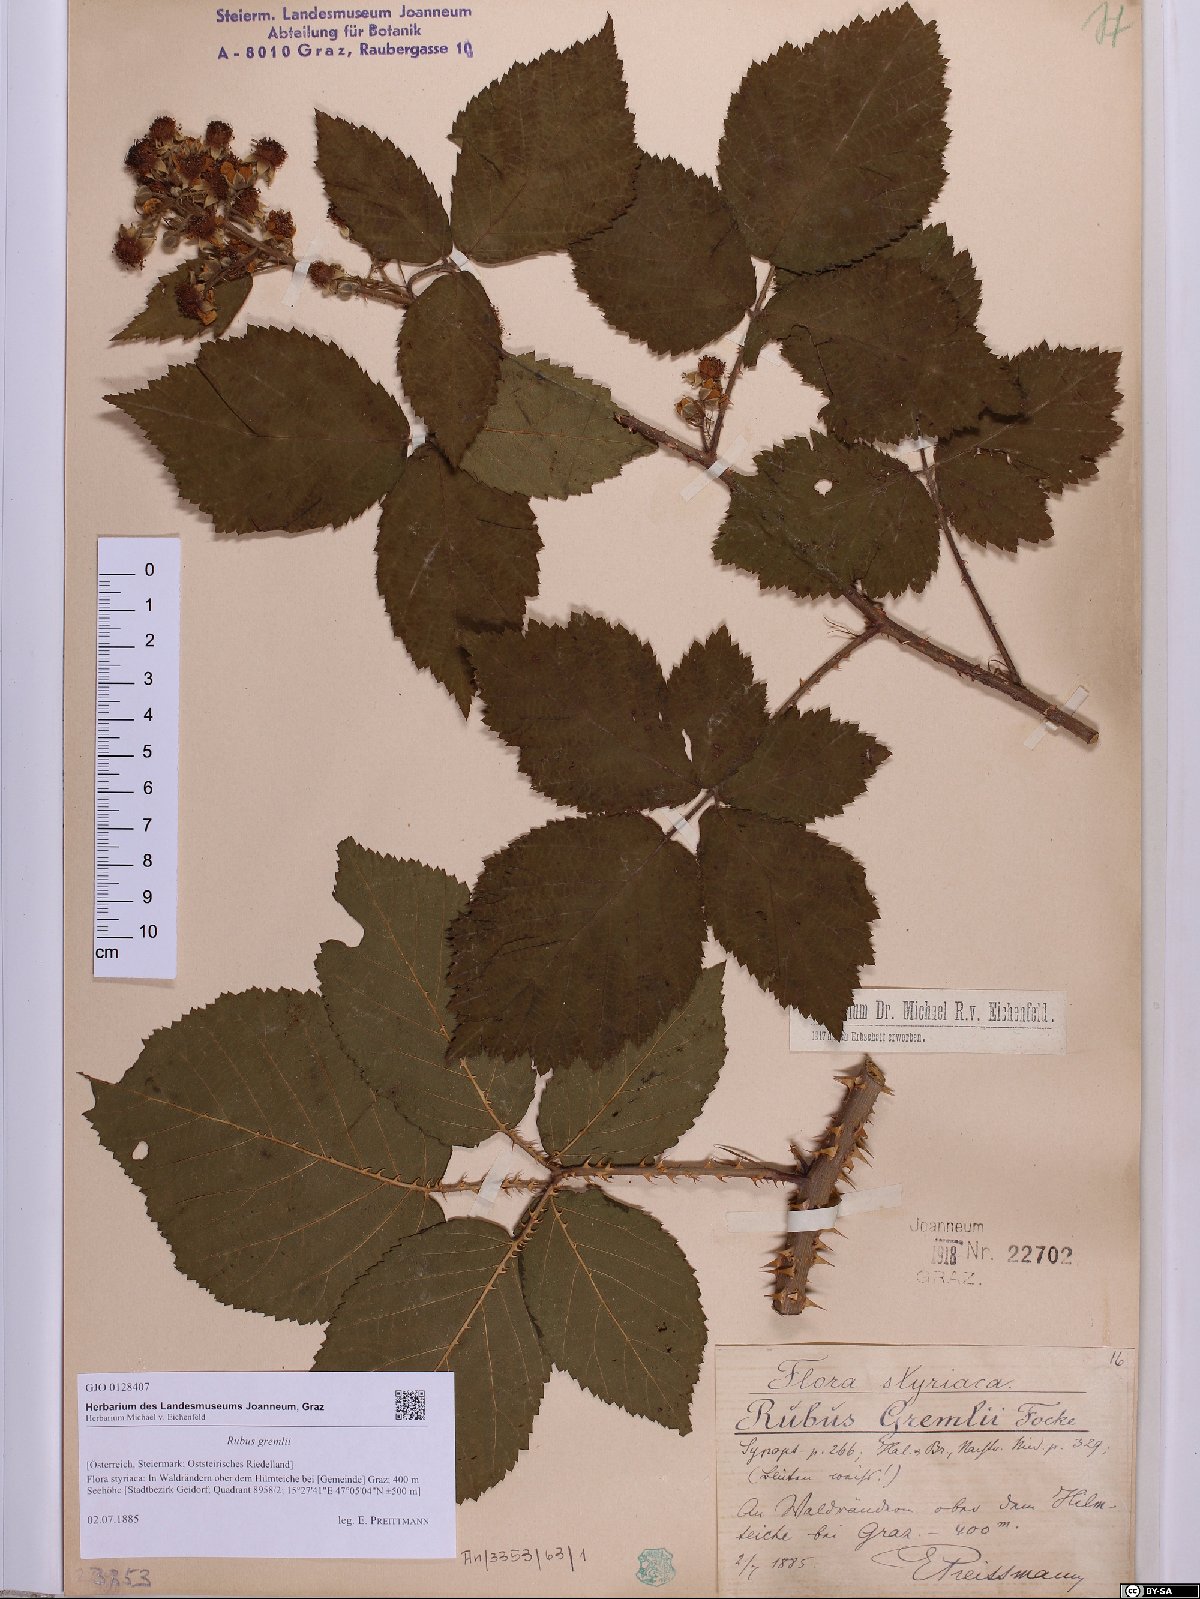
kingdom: Plantae
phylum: Tracheophyta
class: Magnoliopsida
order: Rosales
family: Rosaceae
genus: Rubus
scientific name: Rubus gremlii
